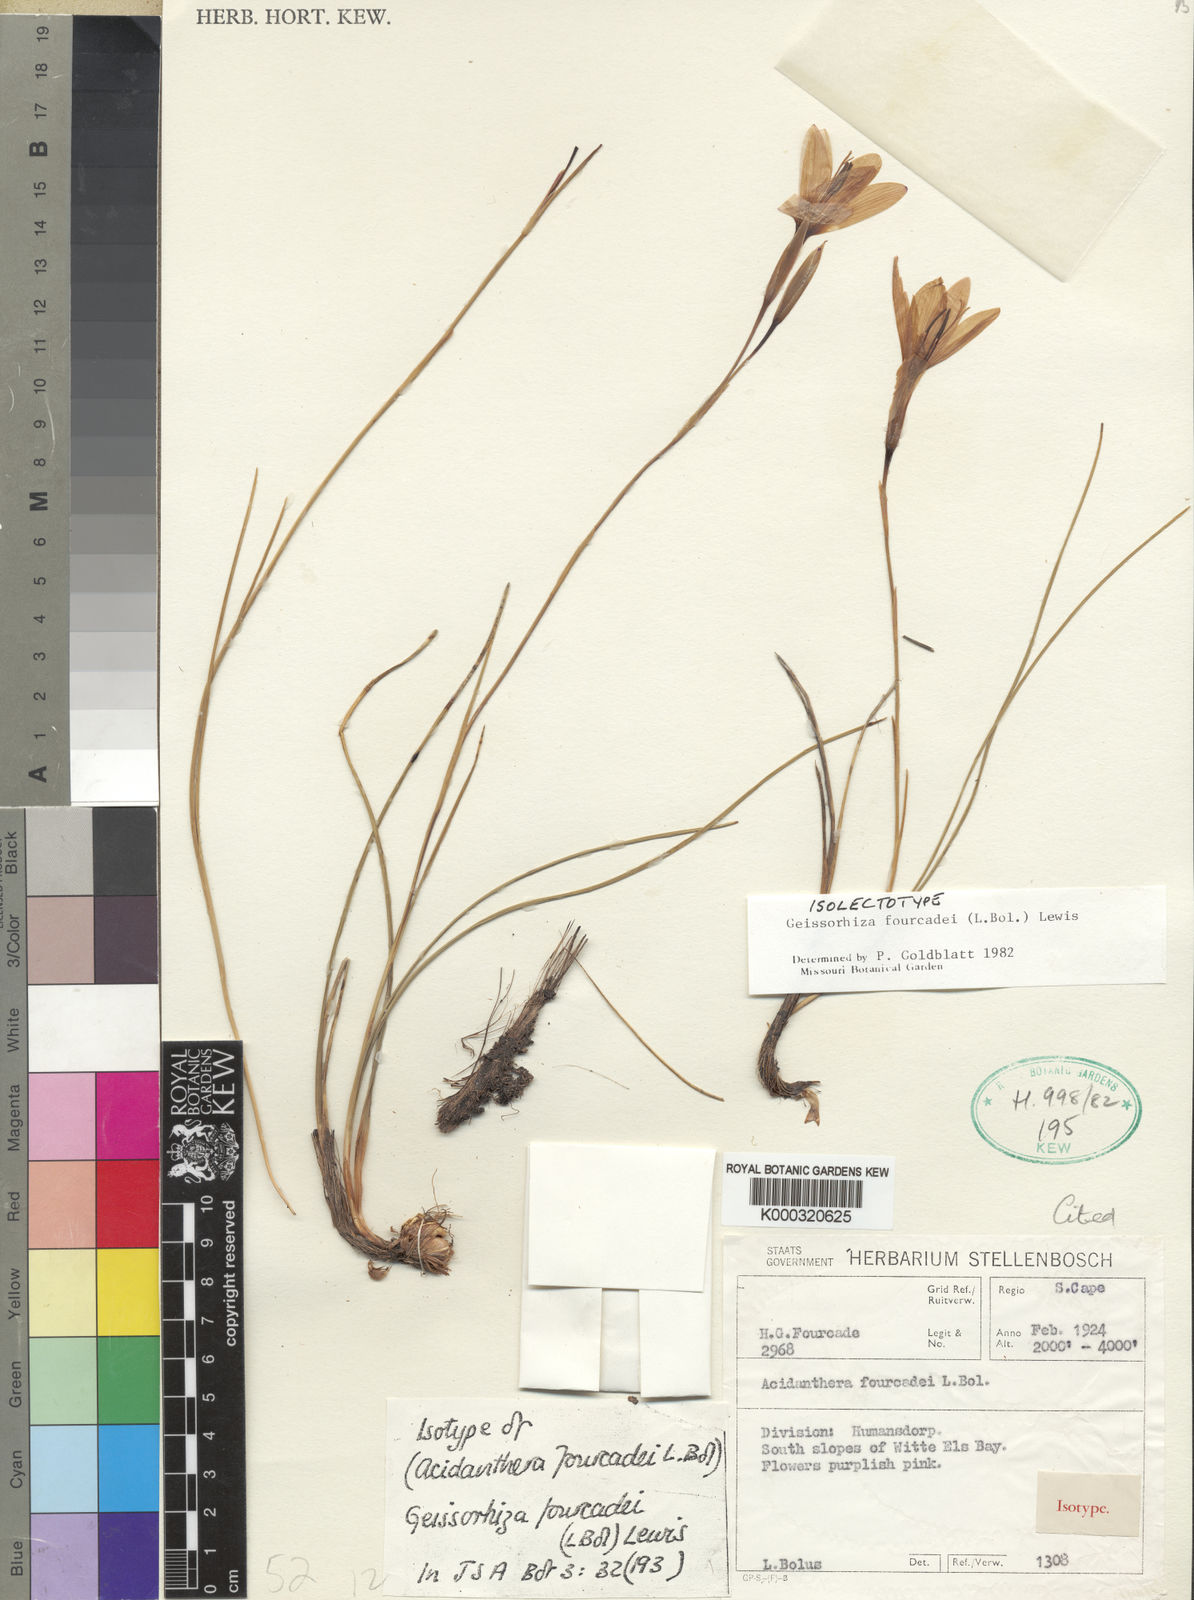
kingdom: Plantae
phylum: Tracheophyta
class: Liliopsida
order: Asparagales
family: Iridaceae
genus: Geissorhiza
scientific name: Geissorhiza fourcadei
